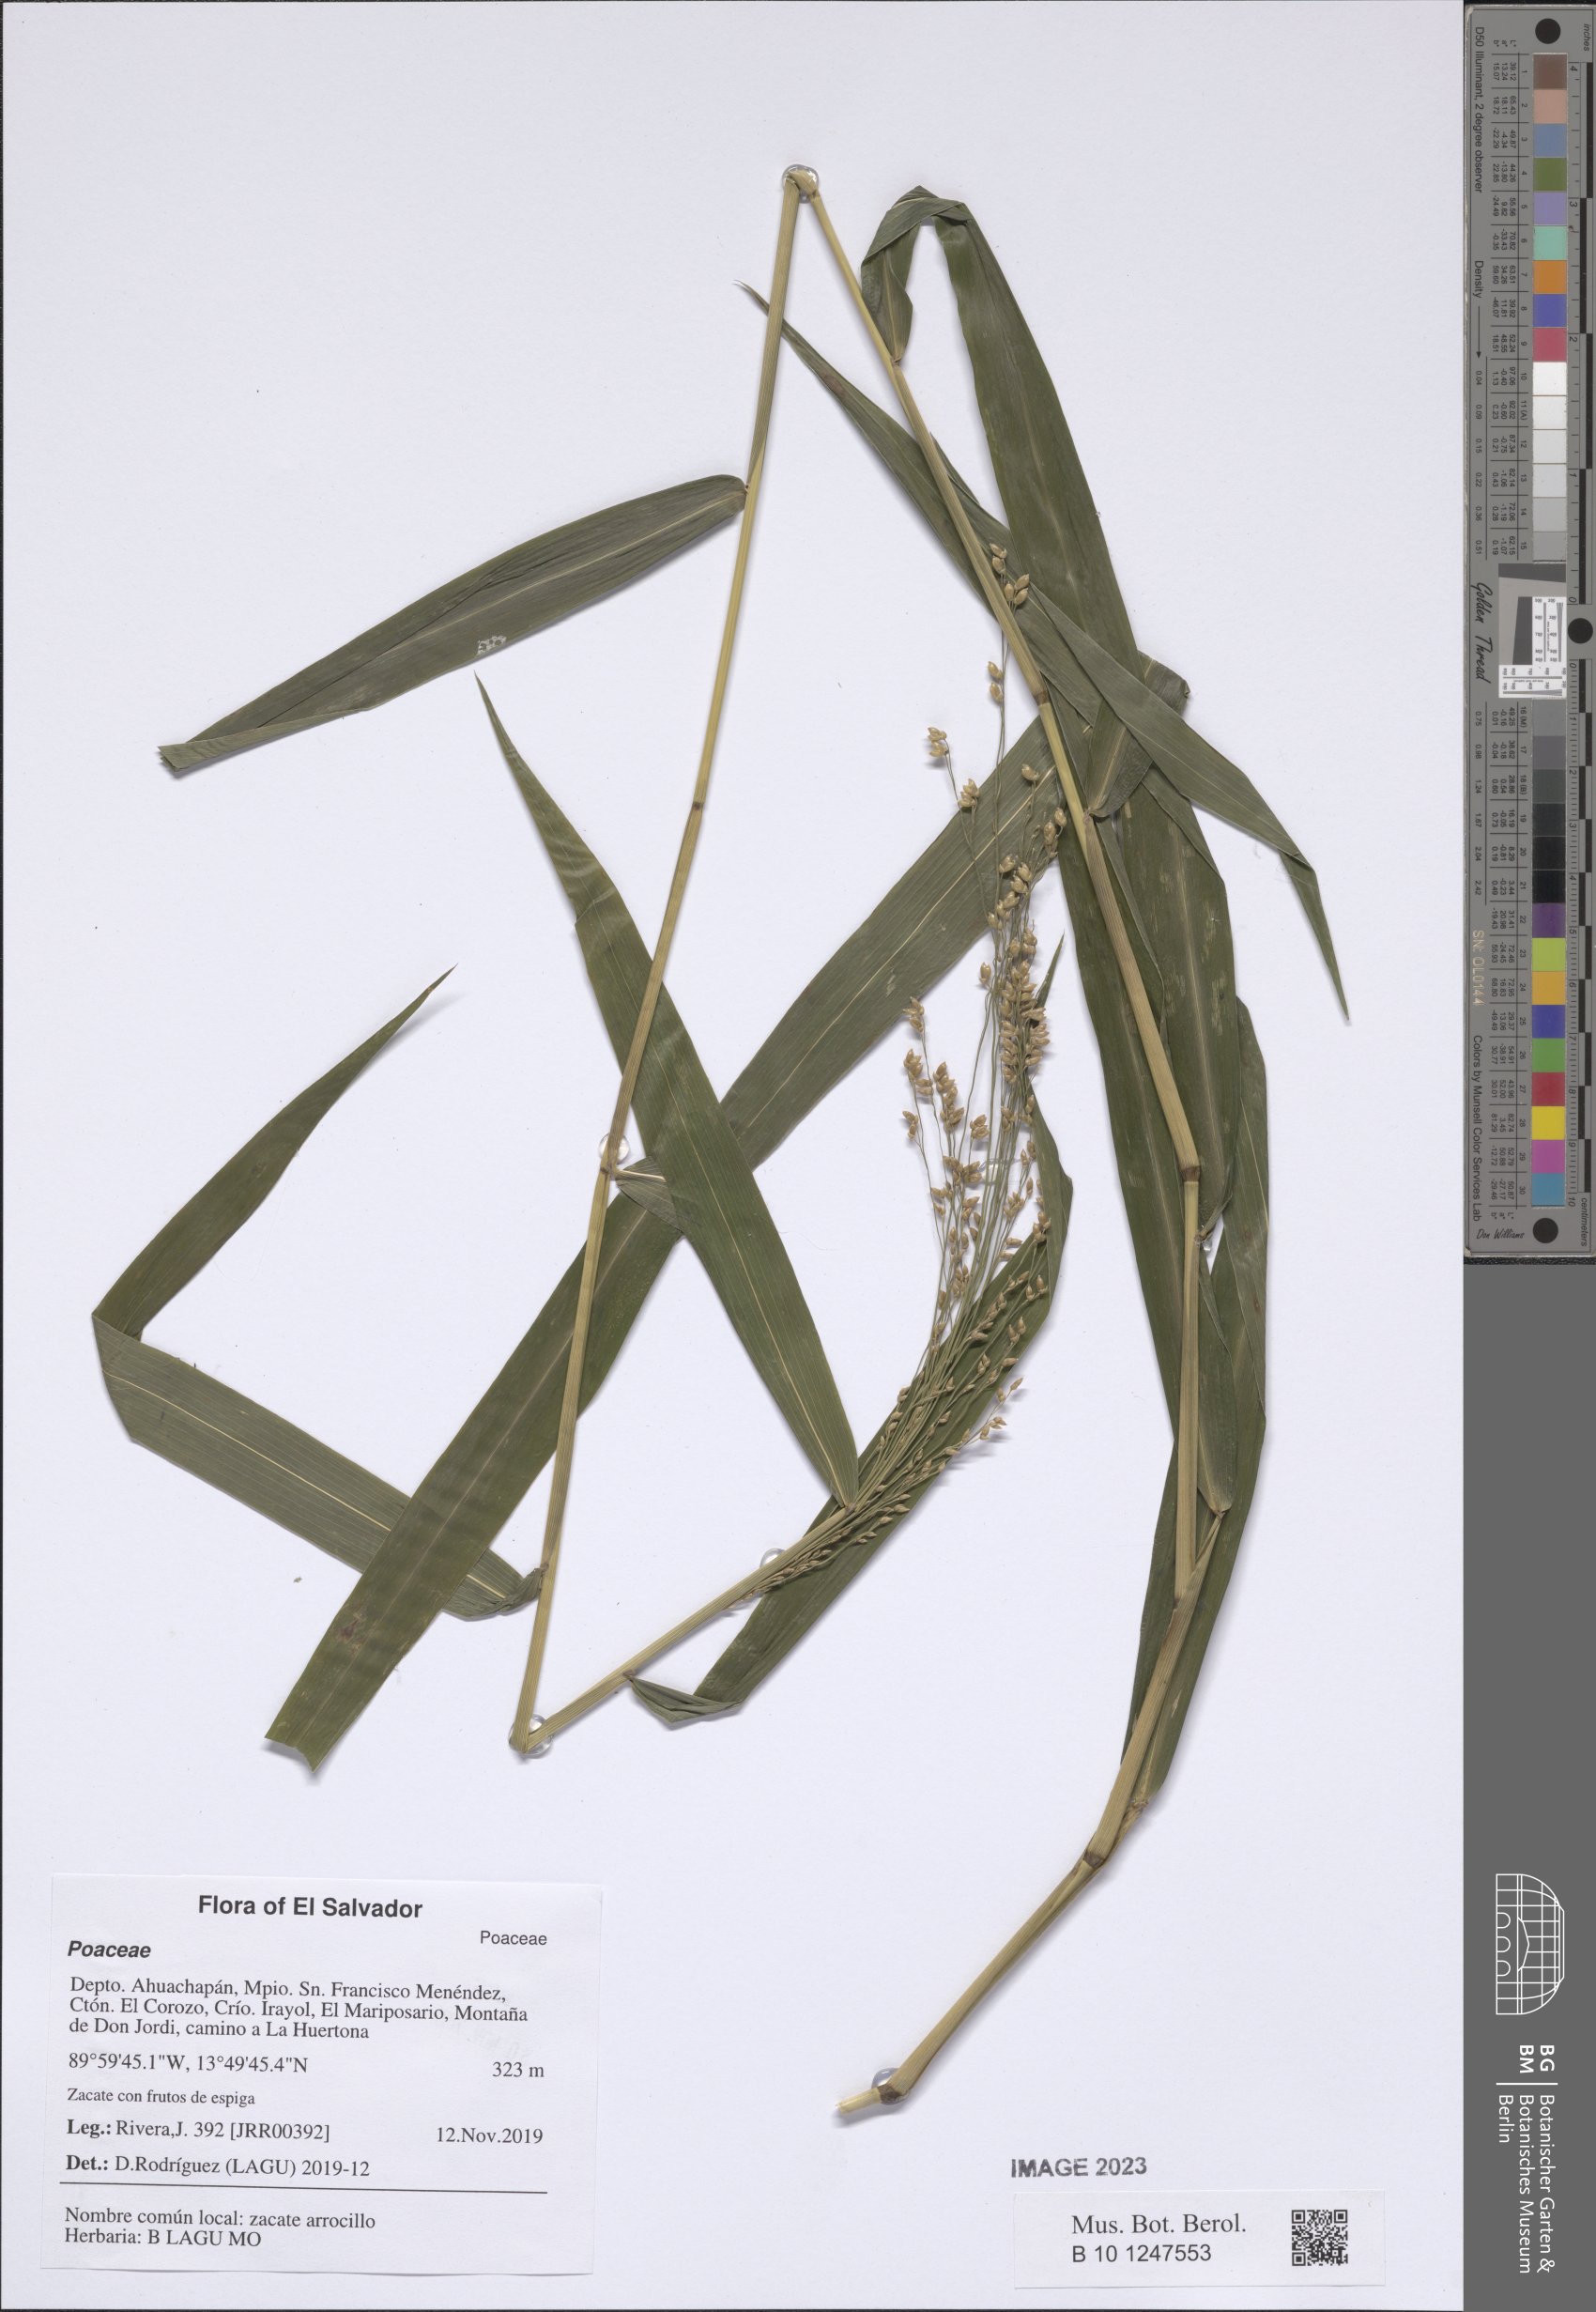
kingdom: Plantae
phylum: Tracheophyta
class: Liliopsida
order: Poales
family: Poaceae
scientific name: Poaceae
